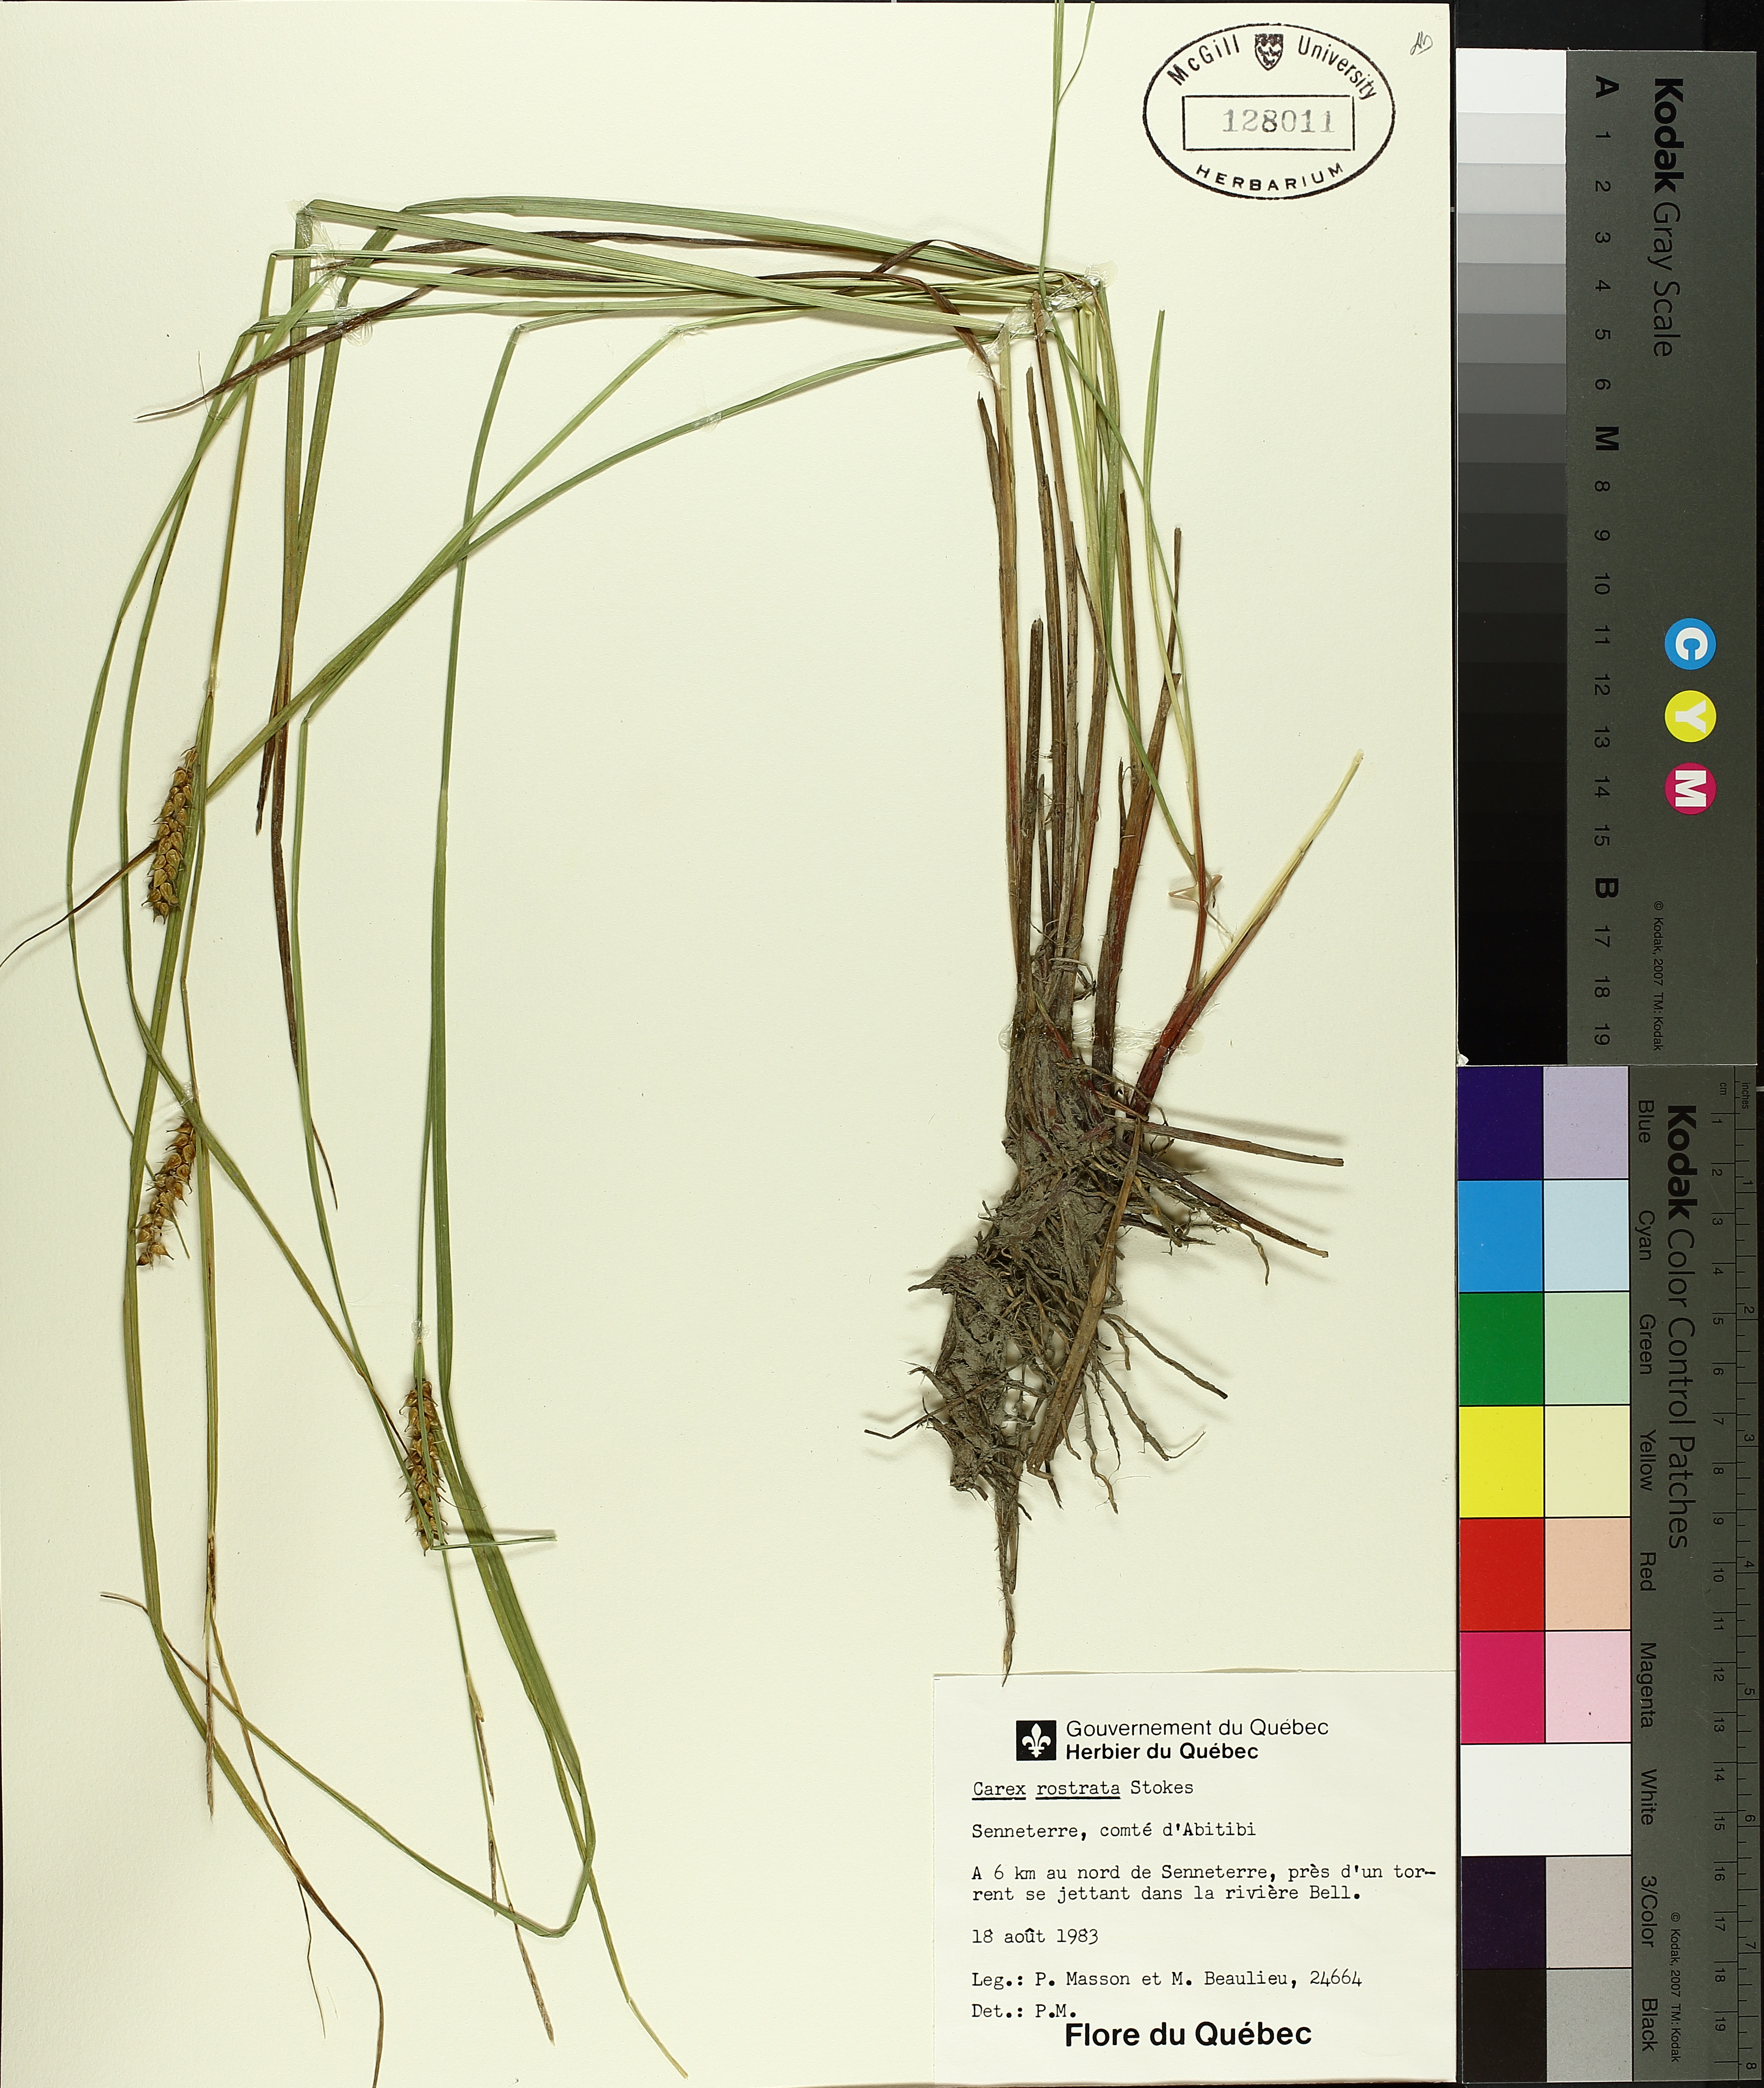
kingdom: Plantae
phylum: Tracheophyta
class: Liliopsida
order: Poales
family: Cyperaceae
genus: Carex
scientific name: Carex rostrata
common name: Bottle sedge
